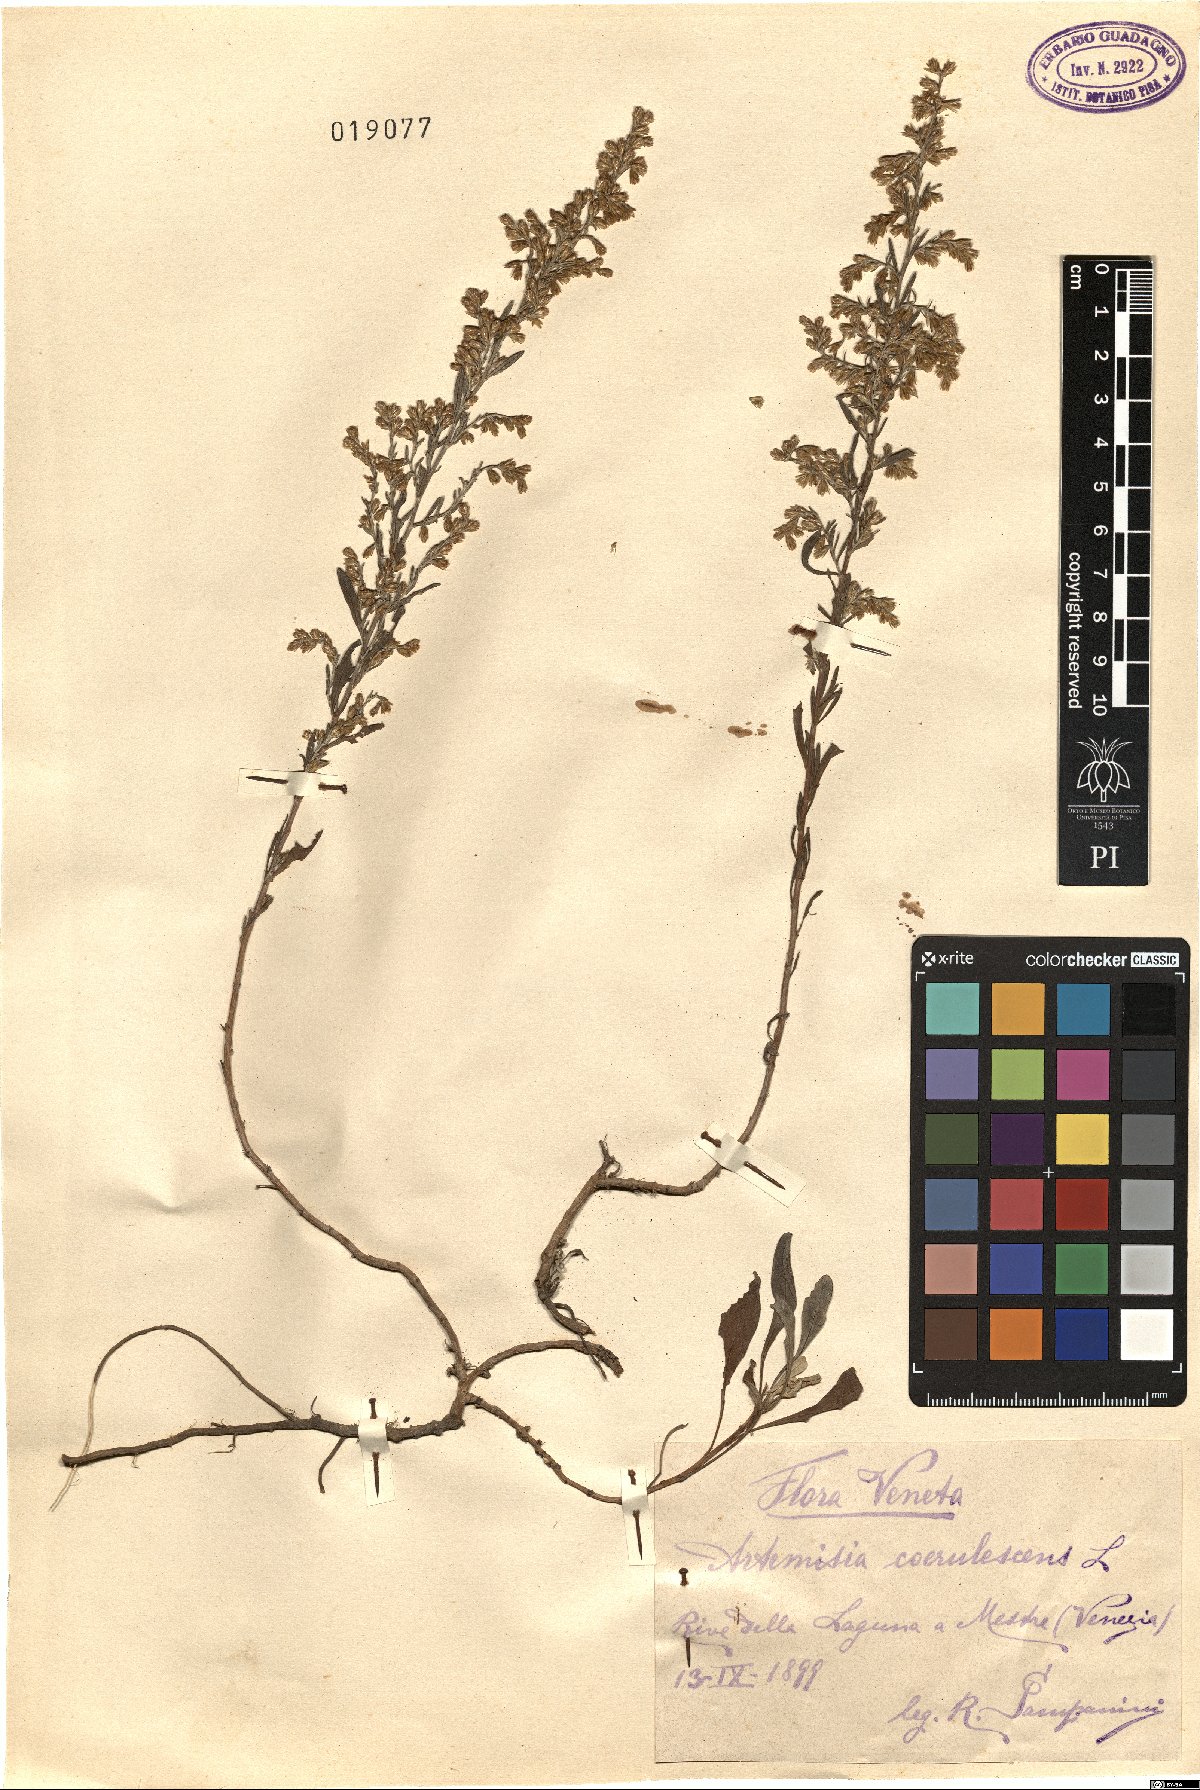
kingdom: Plantae
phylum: Tracheophyta
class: Magnoliopsida
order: Asterales
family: Asteraceae
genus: Artemisia
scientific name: Artemisia caerulescens
